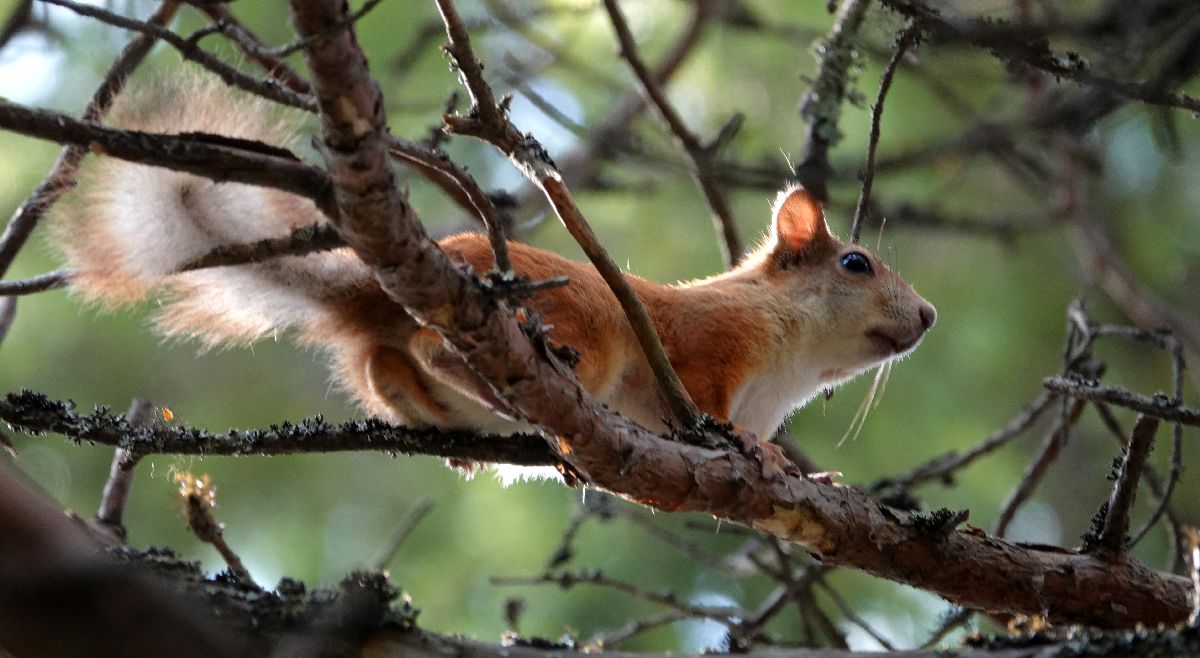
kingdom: Animalia
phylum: Chordata
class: Mammalia
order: Rodentia
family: Sciuridae
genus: Sciurus
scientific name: Sciurus vulgaris
